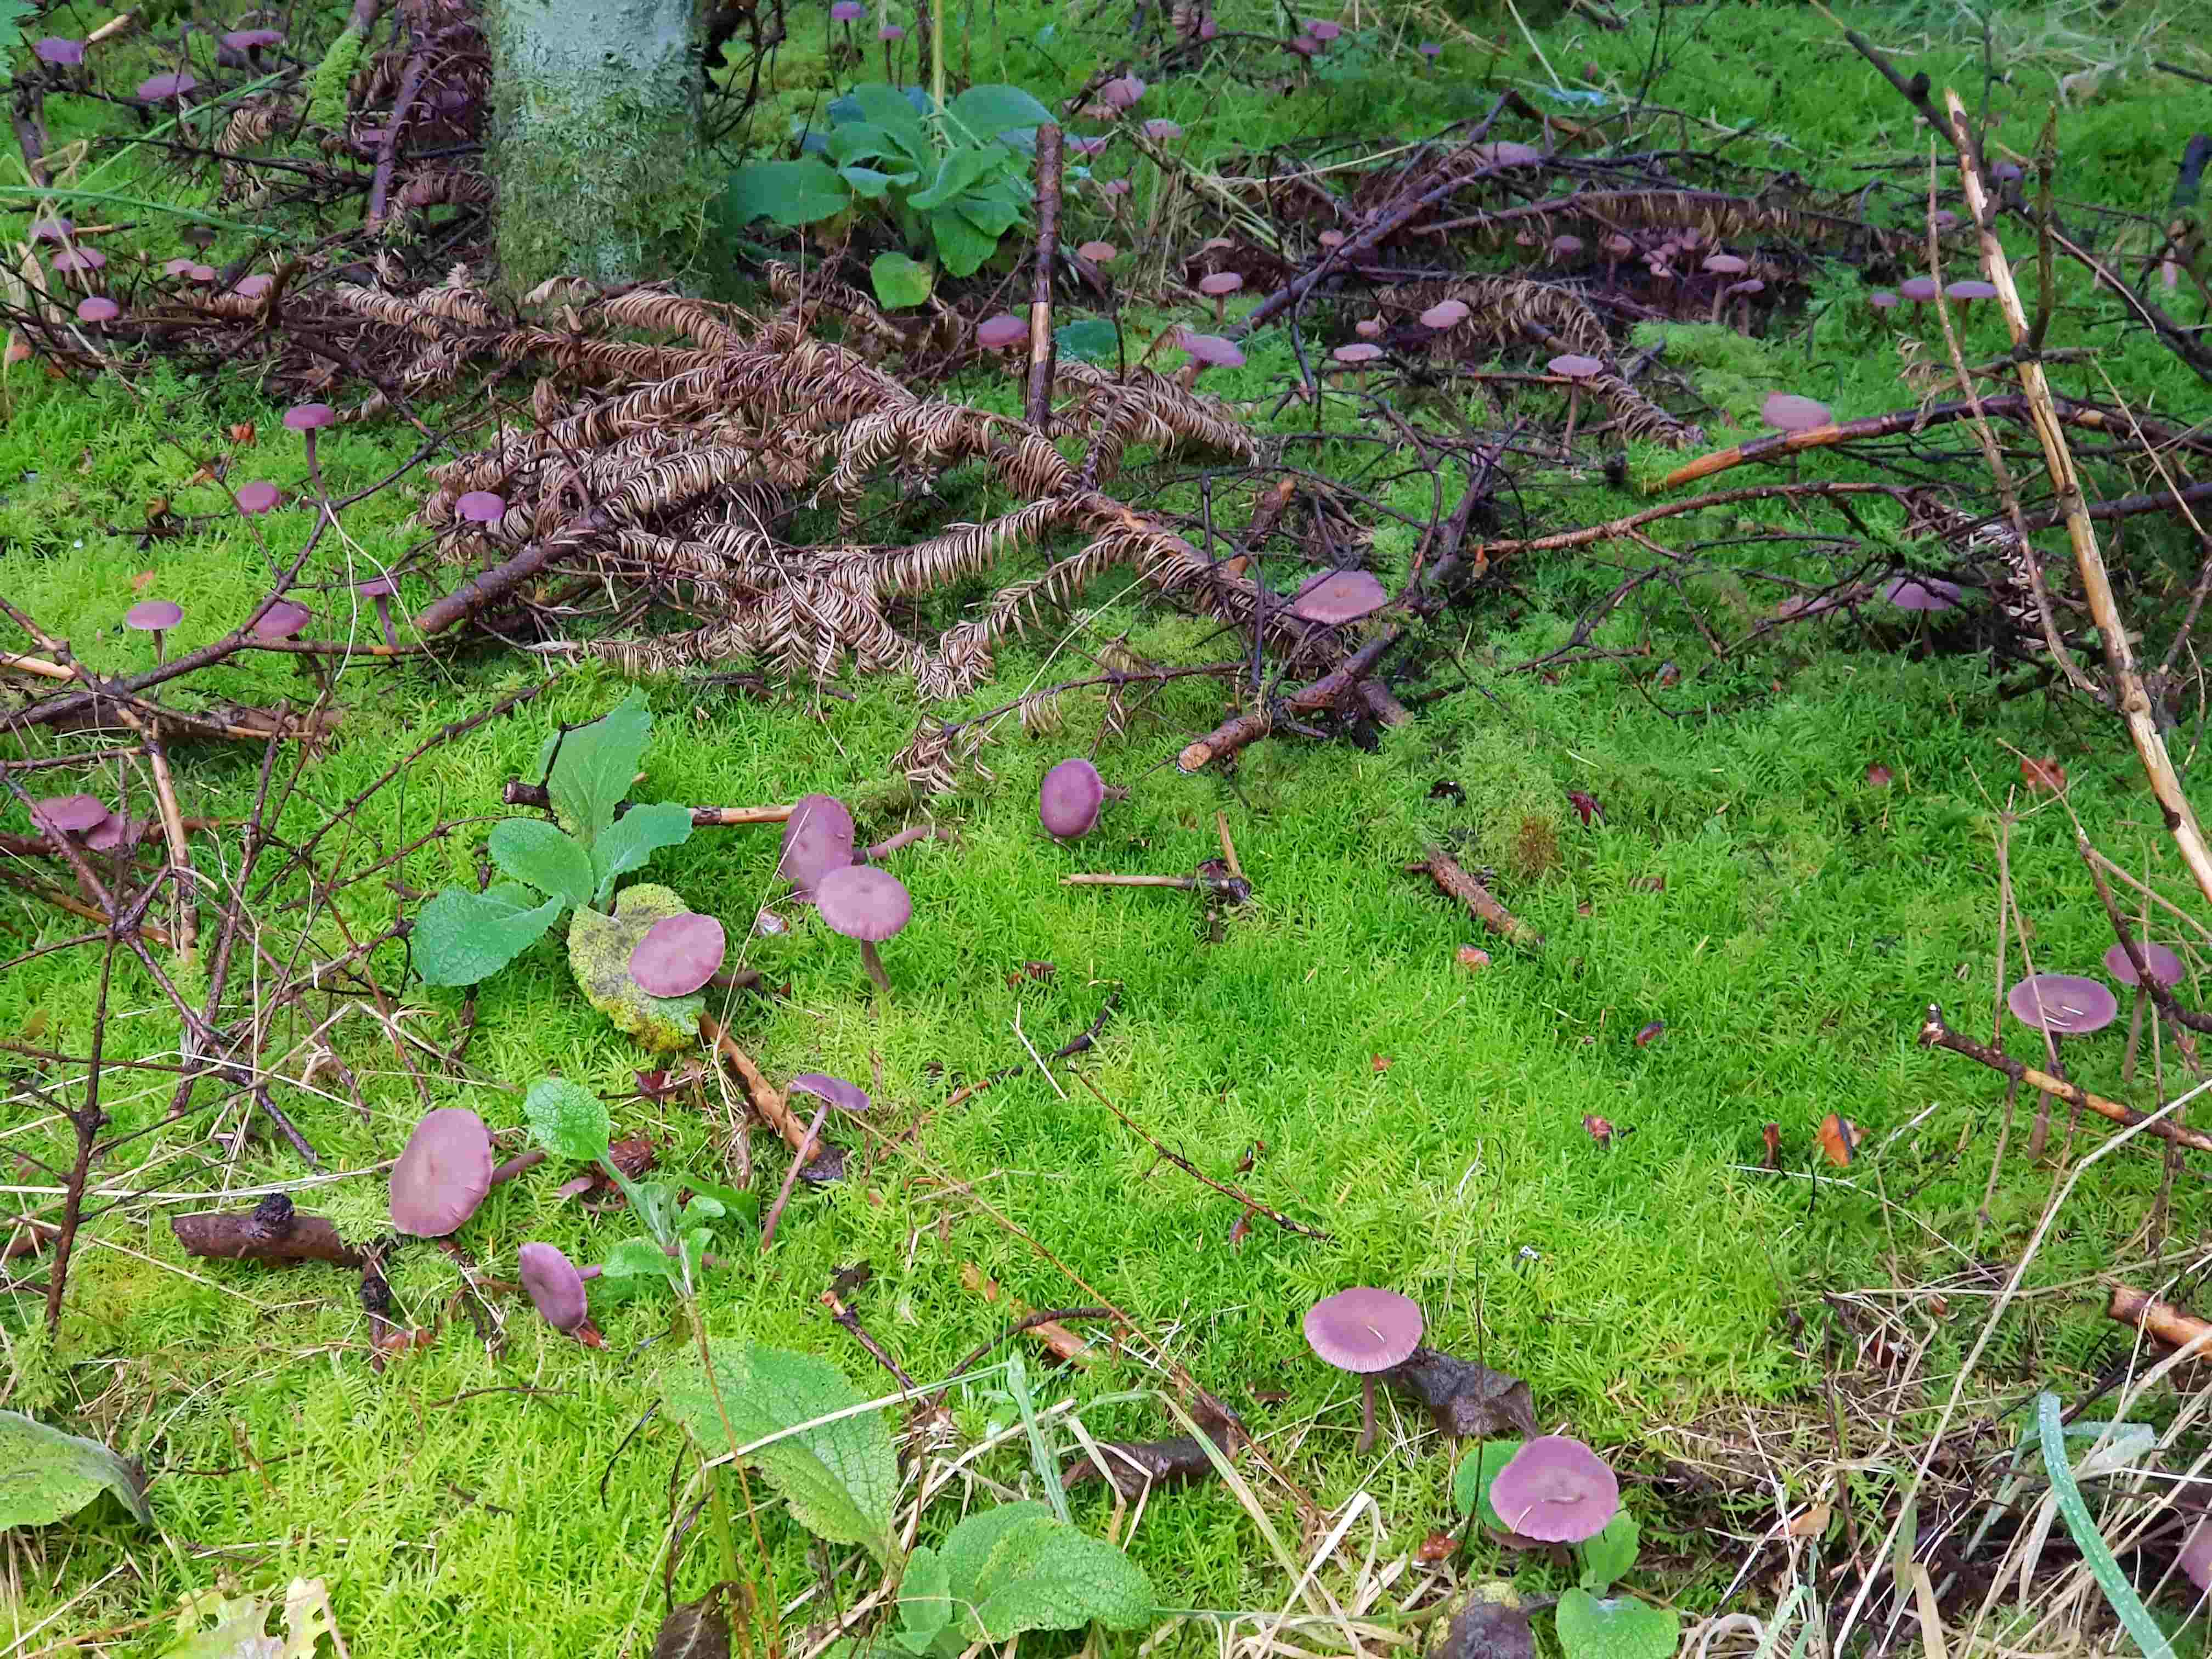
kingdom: Fungi
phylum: Basidiomycota
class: Agaricomycetes
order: Agaricales
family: Hydnangiaceae
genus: Laccaria
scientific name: Laccaria amethystina
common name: violet ametysthat
